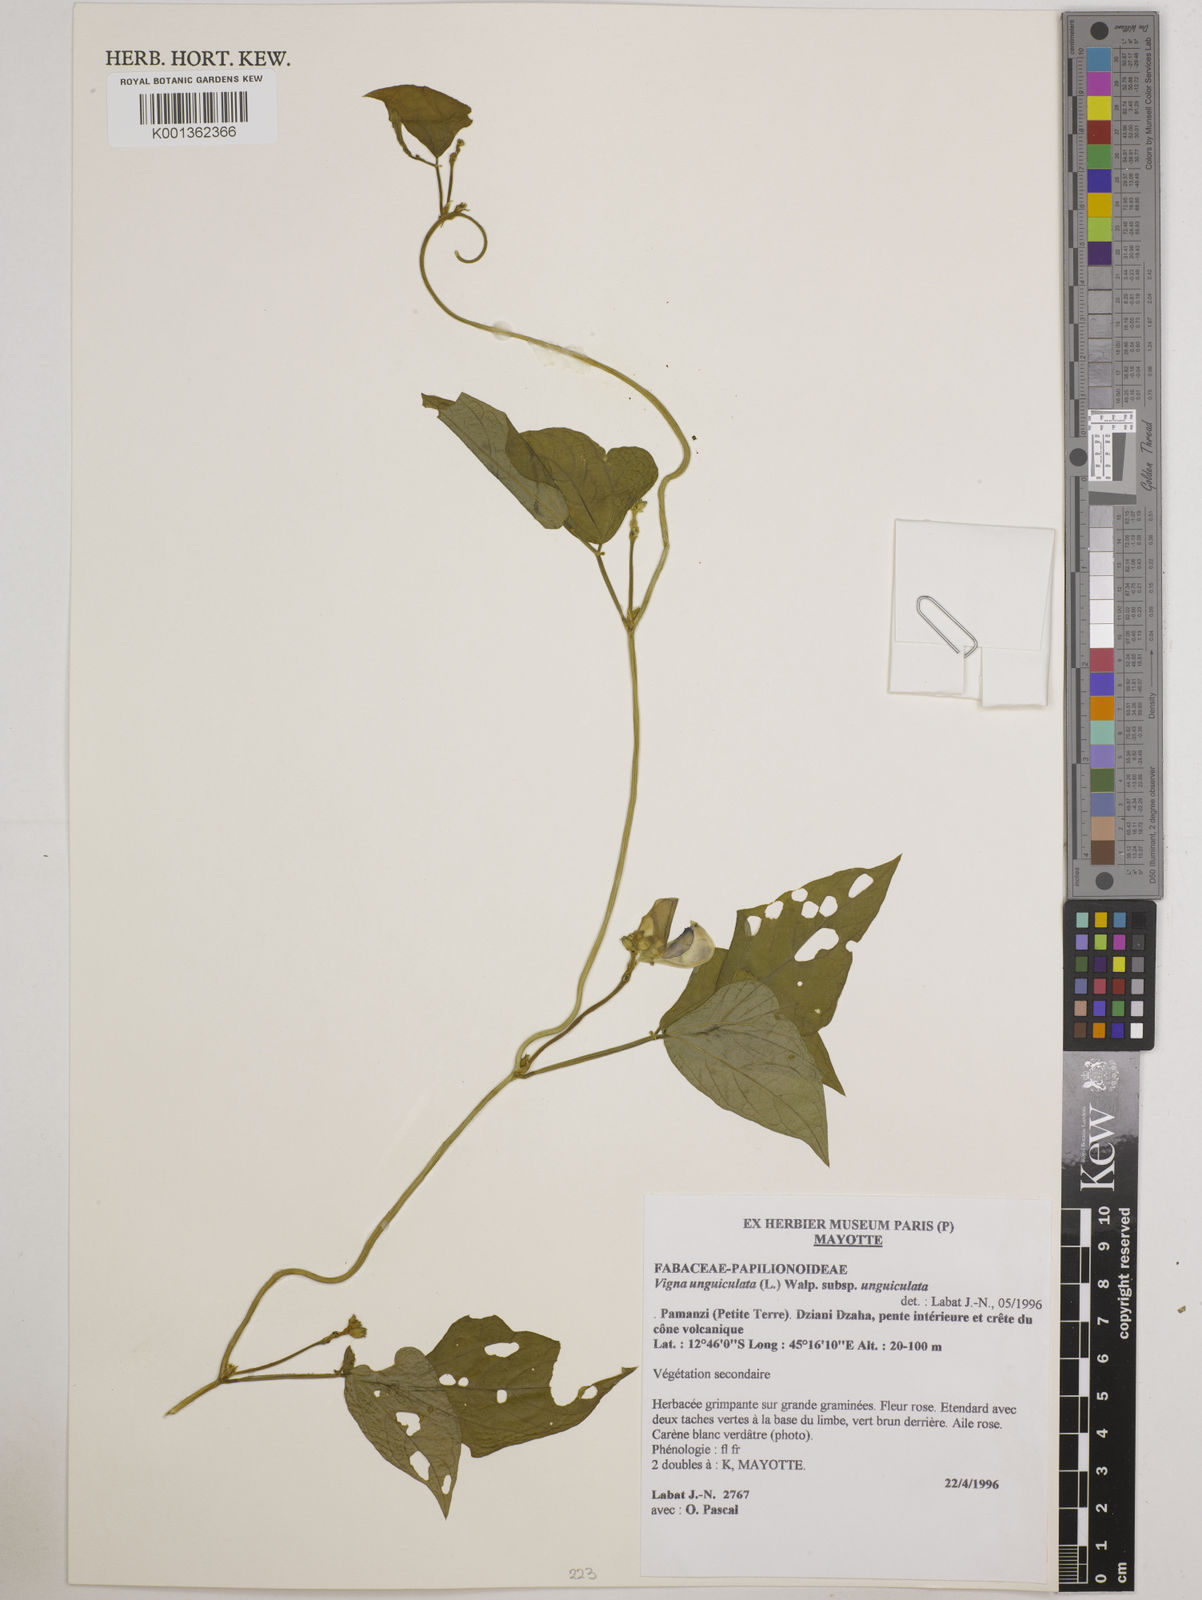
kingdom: Plantae
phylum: Tracheophyta
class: Magnoliopsida
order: Fabales
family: Fabaceae
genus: Vigna
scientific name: Vigna
